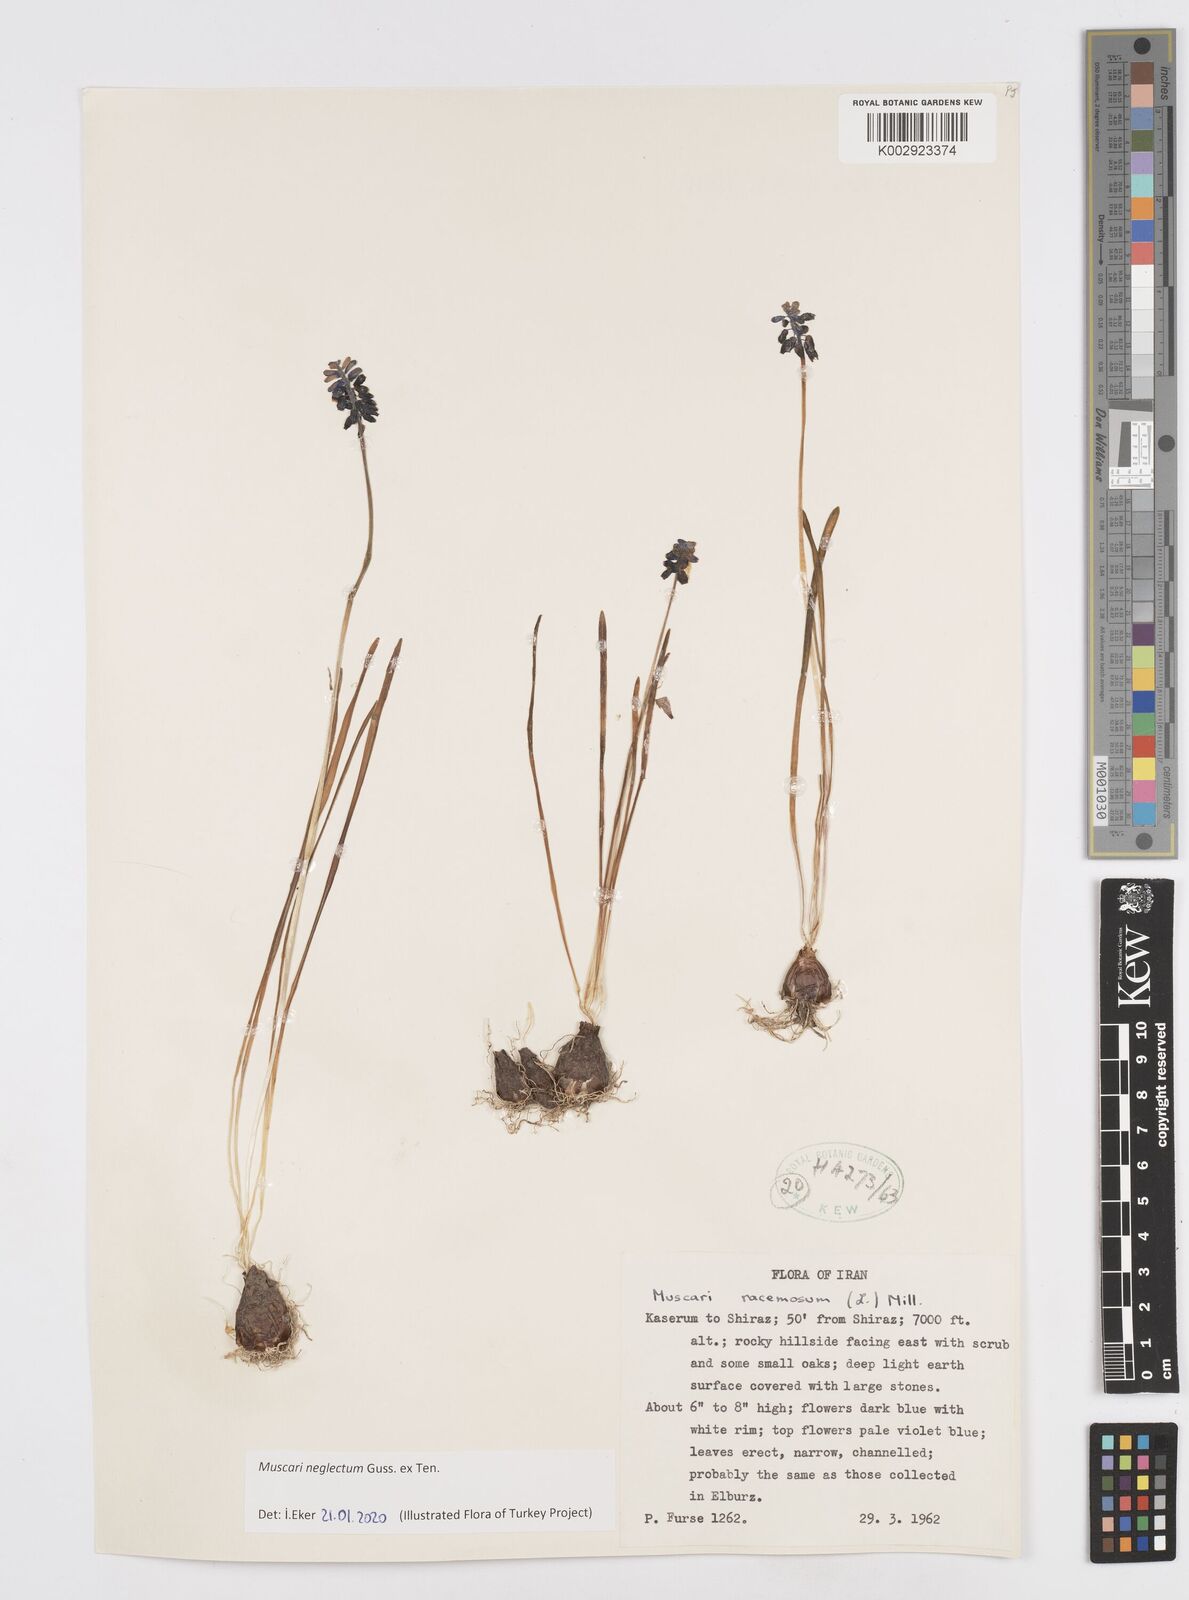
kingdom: Plantae
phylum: Tracheophyta
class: Liliopsida
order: Asparagales
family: Asparagaceae
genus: Muscari
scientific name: Muscari neglectum
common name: Grape-hyacinth
